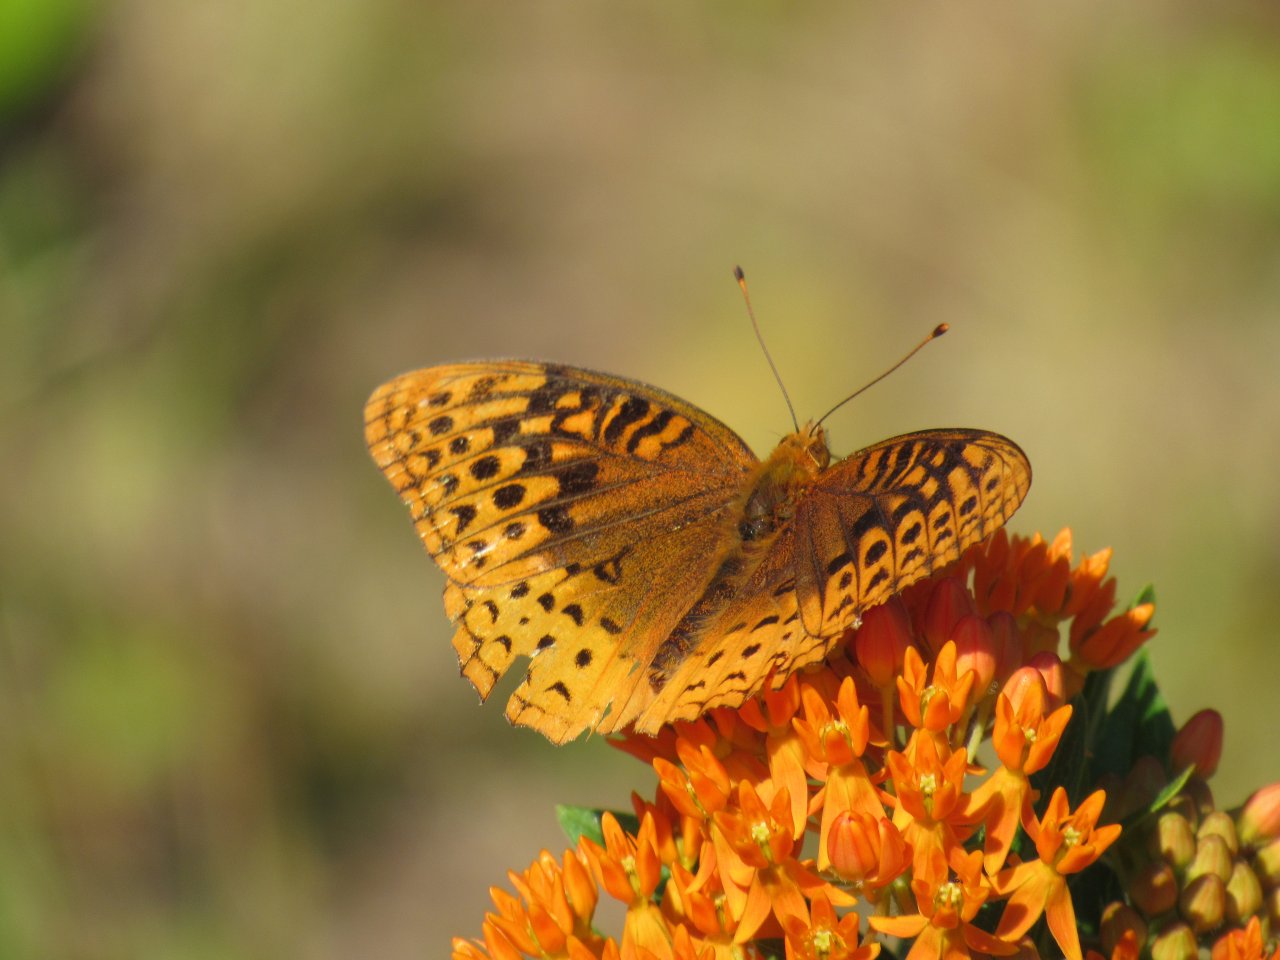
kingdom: Animalia
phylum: Arthropoda
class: Insecta
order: Lepidoptera
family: Nymphalidae
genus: Speyeria
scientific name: Speyeria cybele
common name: Great Spangled Fritillary
